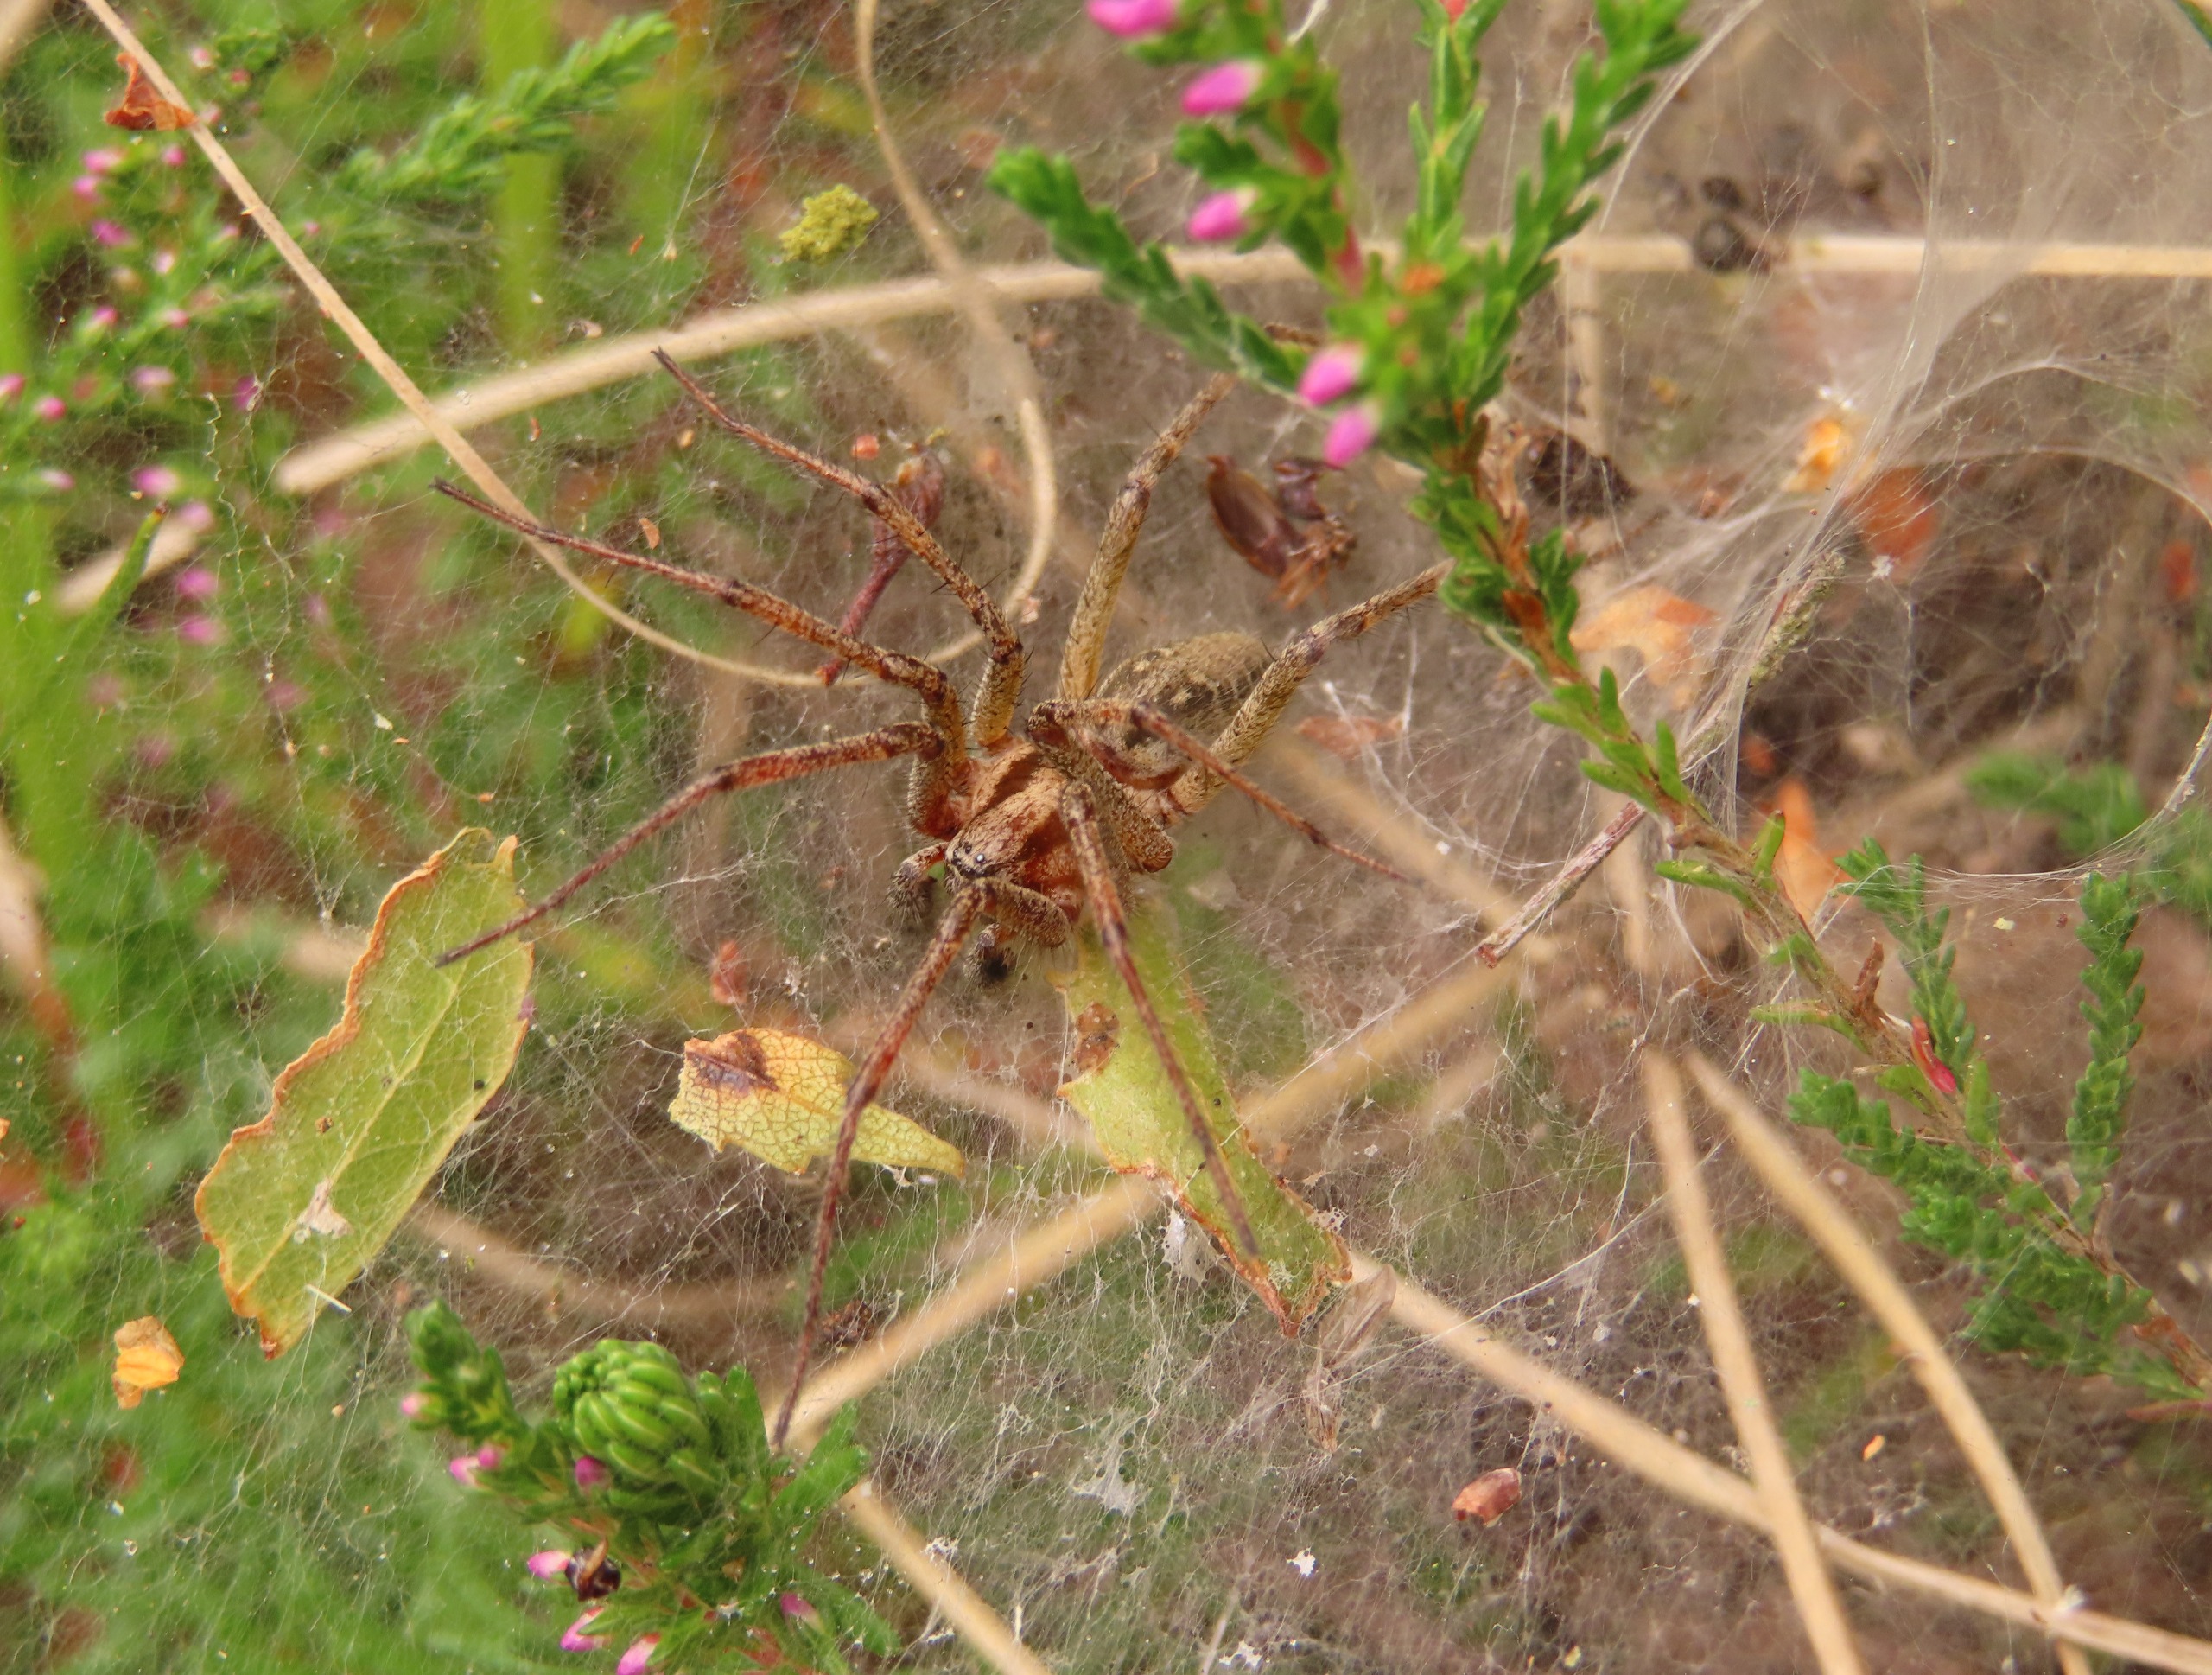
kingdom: Animalia
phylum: Arthropoda
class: Arachnida
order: Araneae
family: Agelenidae
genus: Agelena
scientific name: Agelena labyrinthica
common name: Labyrintedderkop
